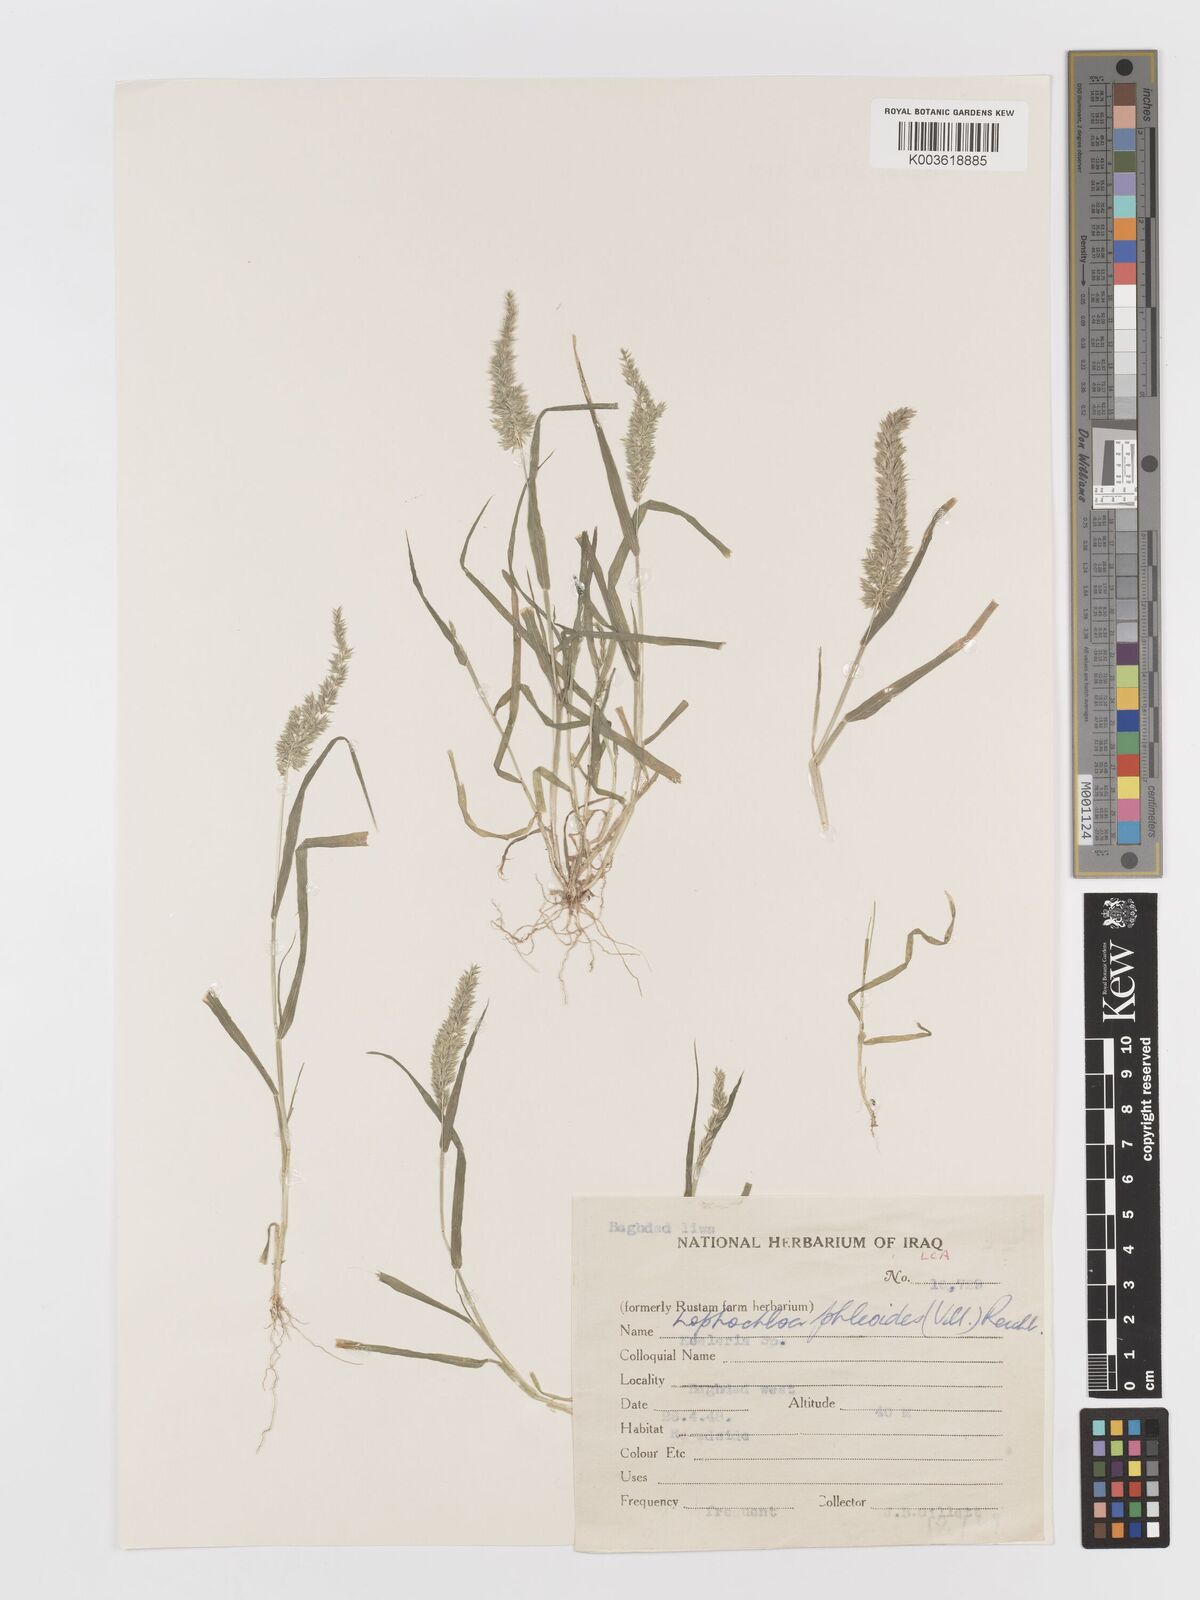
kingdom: Plantae
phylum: Tracheophyta
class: Liliopsida
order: Poales
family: Poaceae
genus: Rostraria
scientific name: Rostraria cristata
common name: Mediterranean hair-grass
